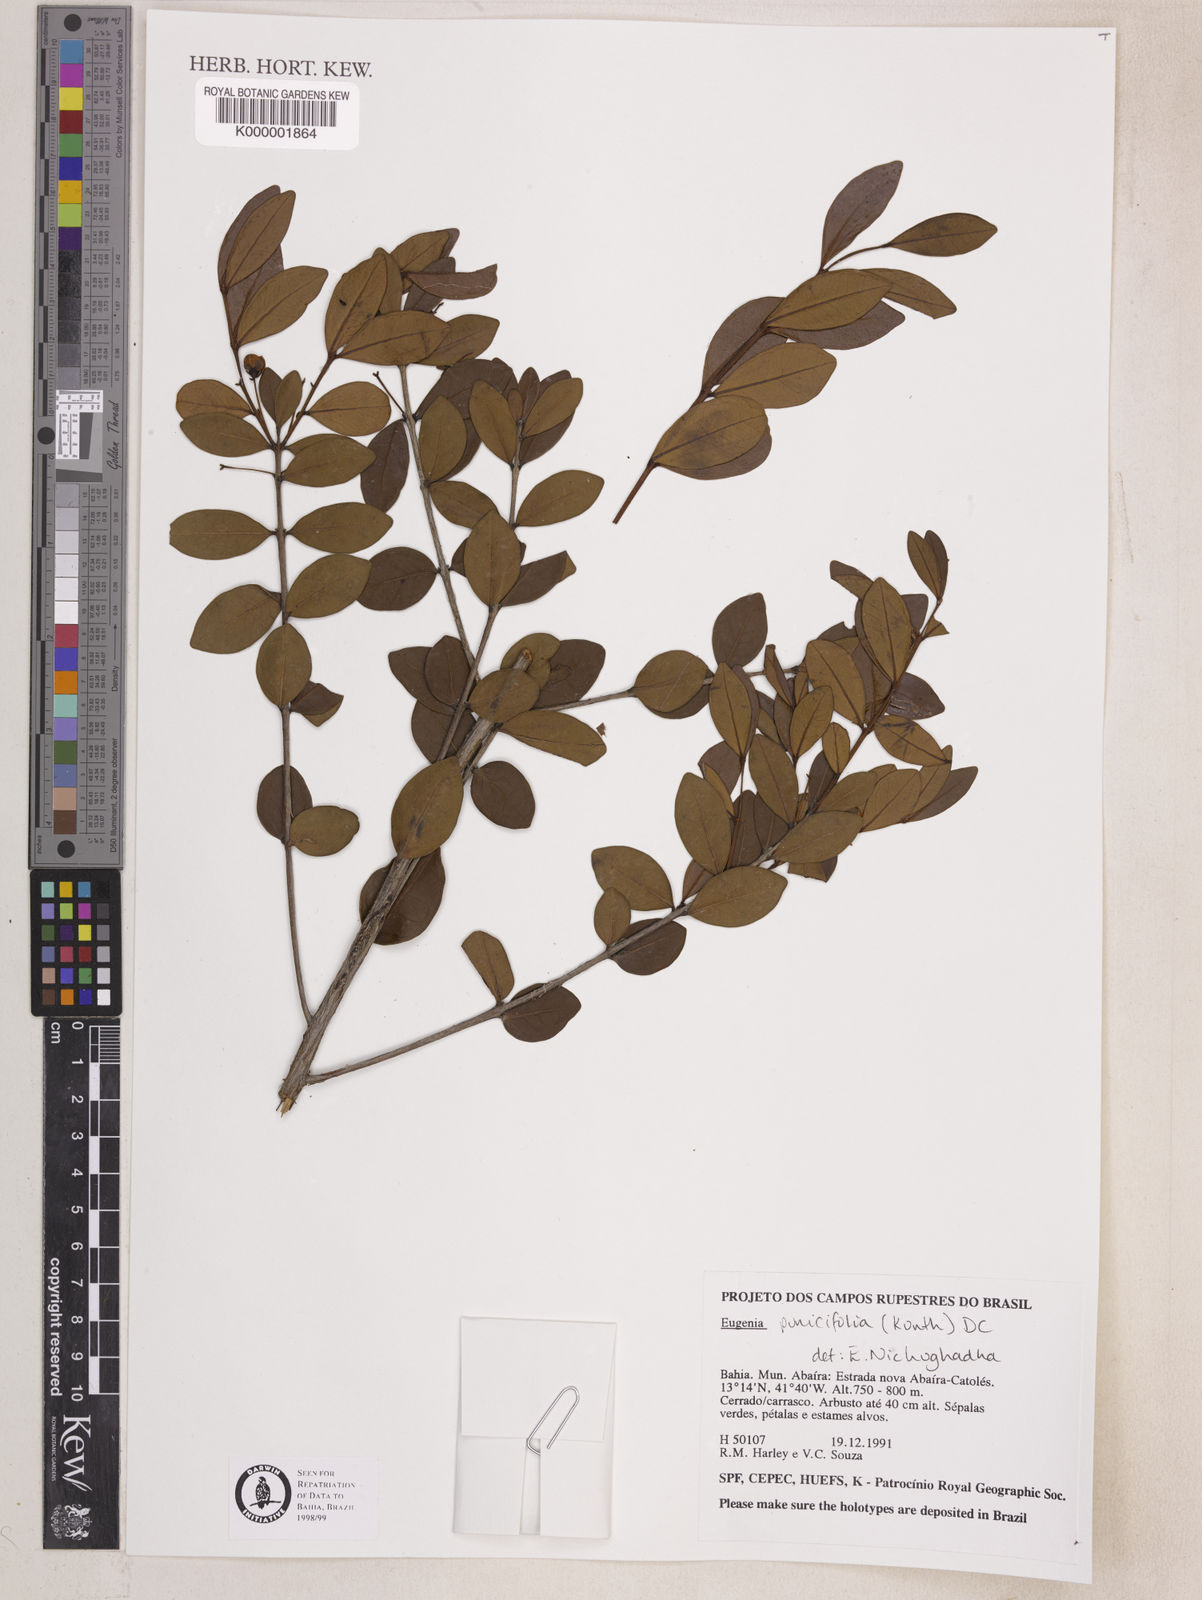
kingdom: Plantae
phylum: Tracheophyta
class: Magnoliopsida
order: Myrtales
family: Myrtaceae
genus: Eugenia
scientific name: Eugenia punicifolia
